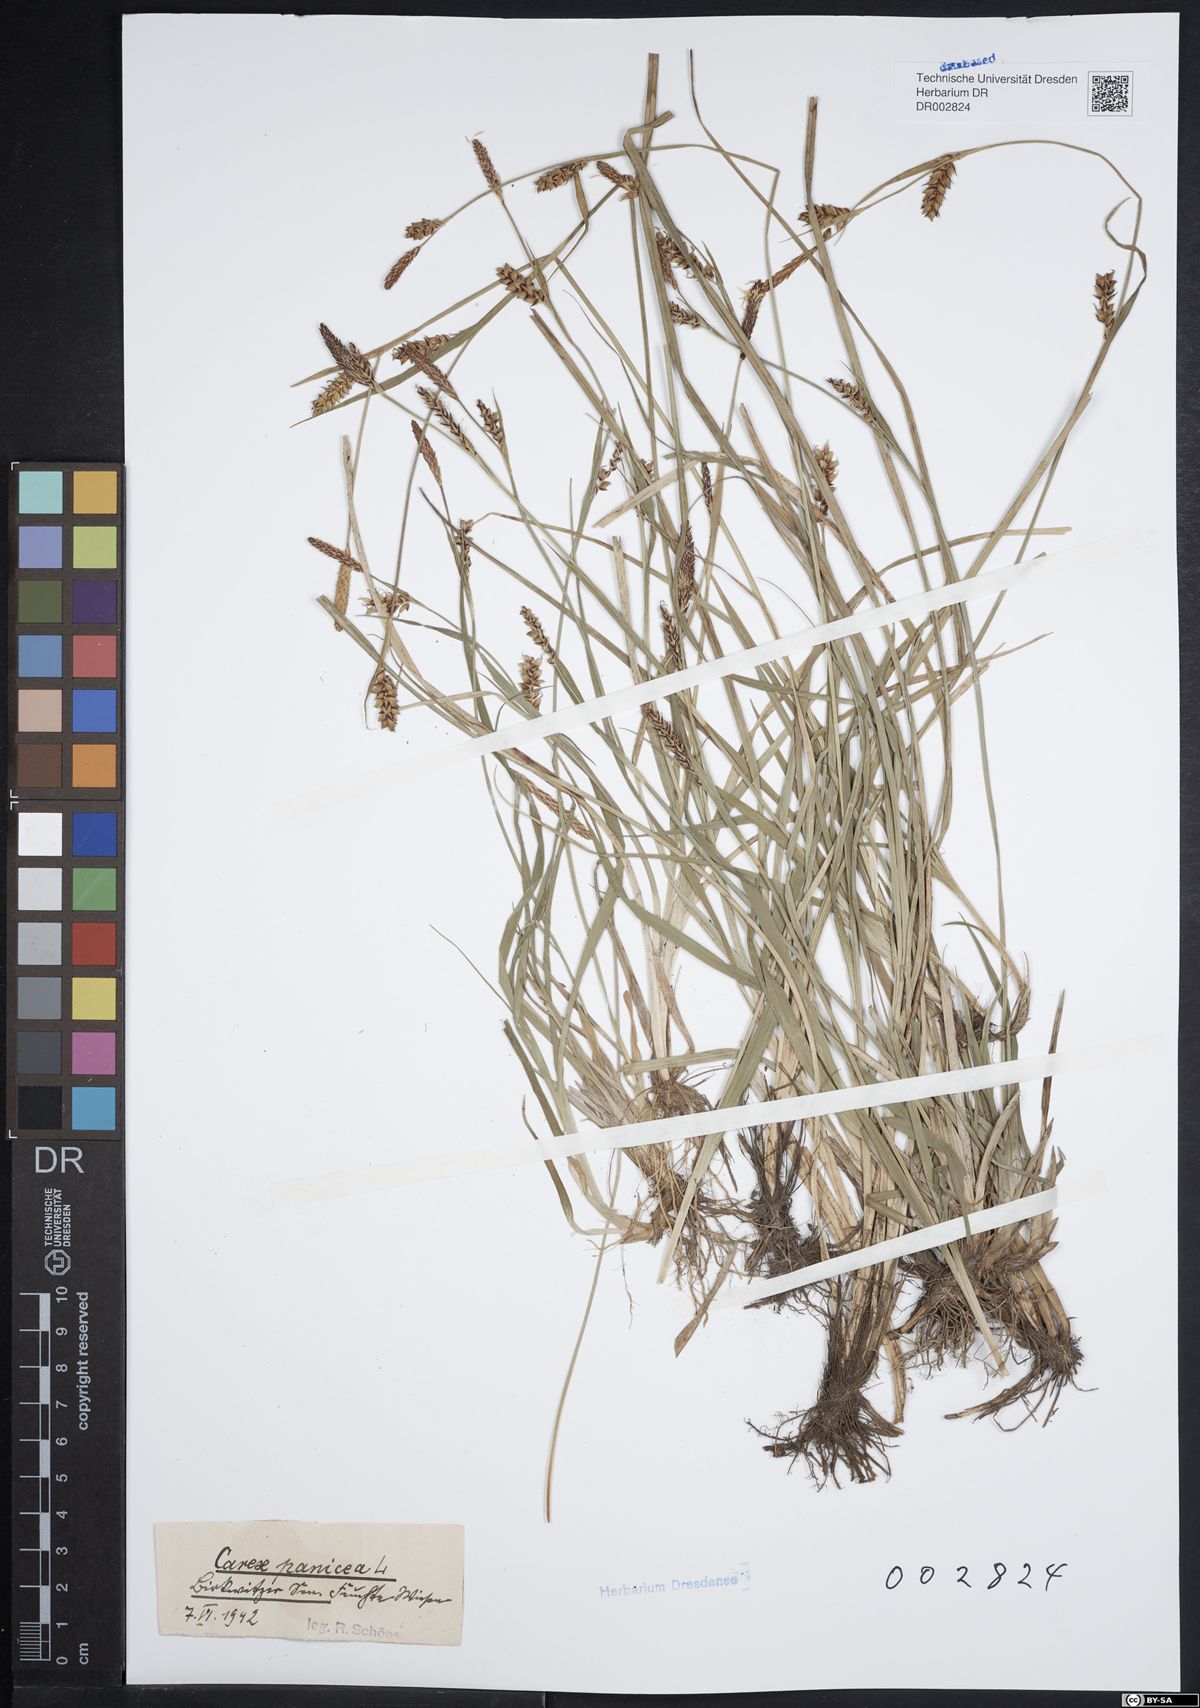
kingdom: Plantae
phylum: Tracheophyta
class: Liliopsida
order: Poales
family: Cyperaceae
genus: Carex
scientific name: Carex panicea
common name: Carnation sedge
